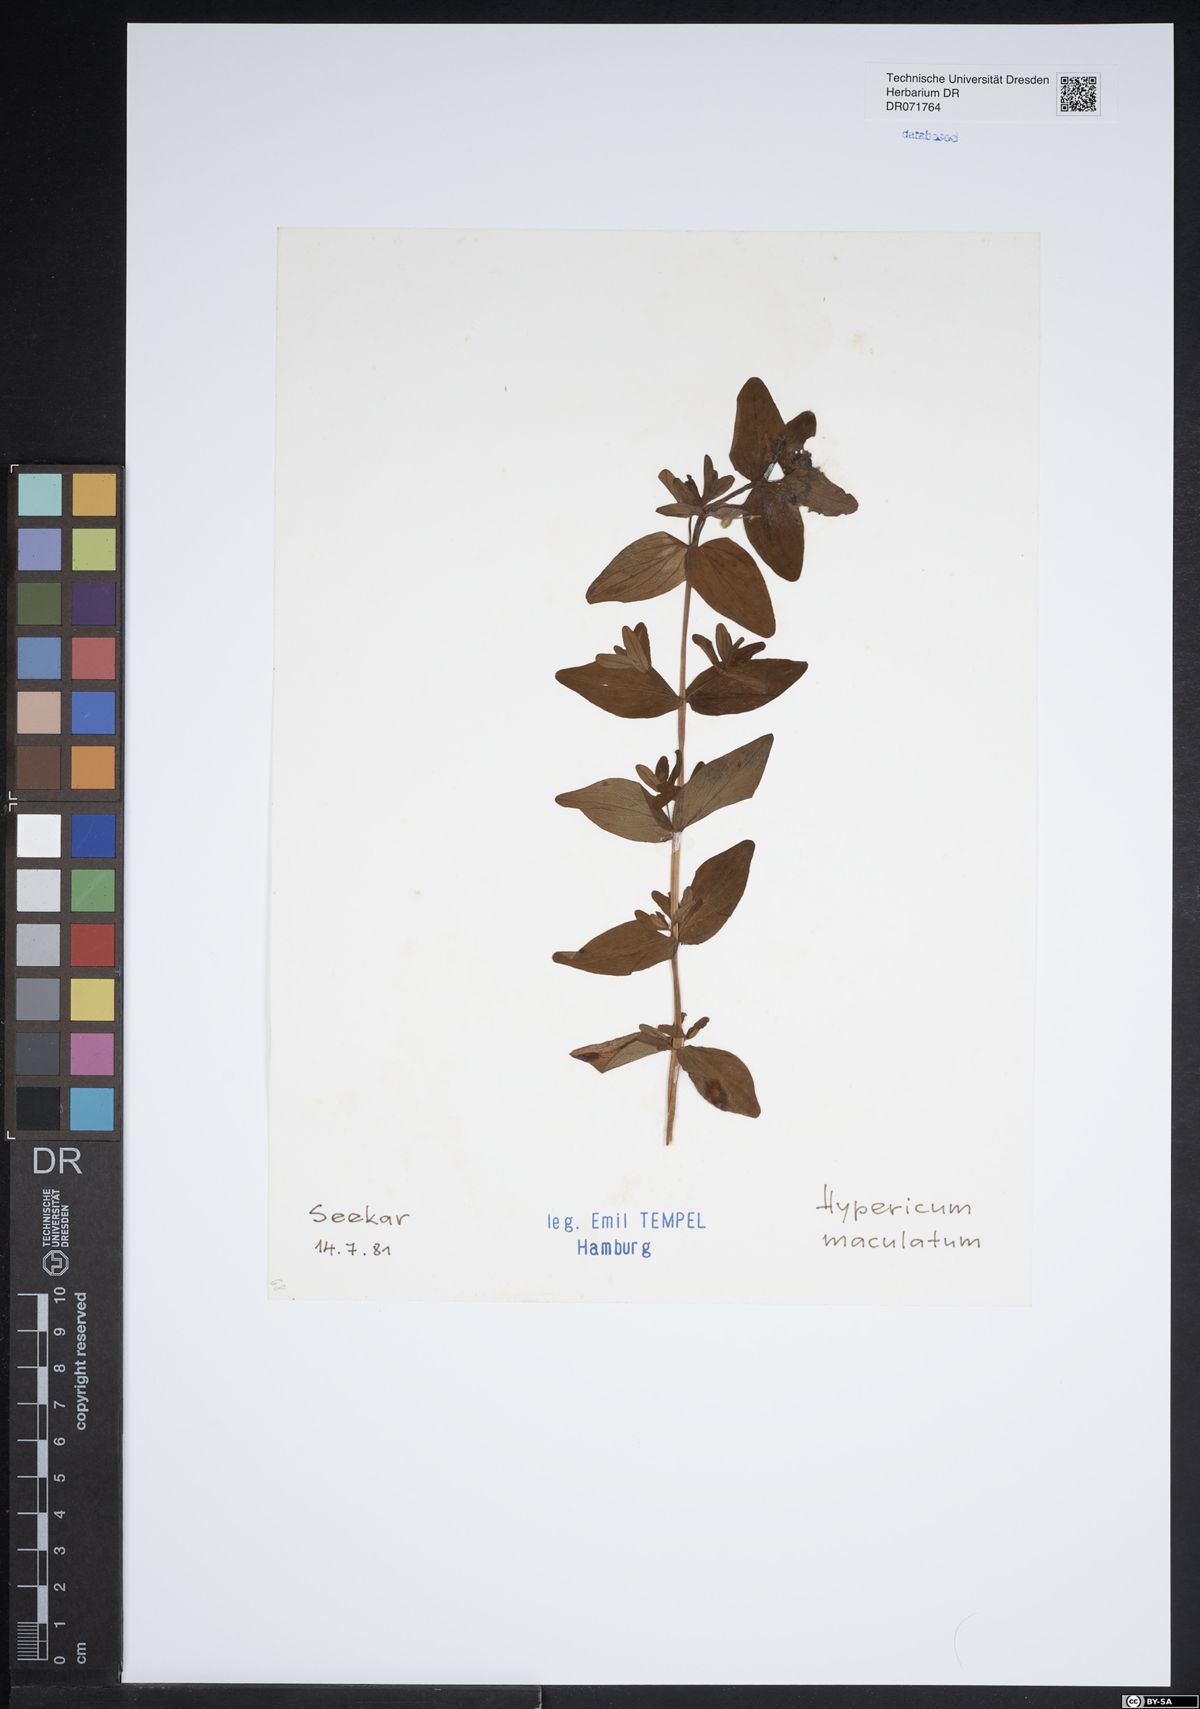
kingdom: Plantae
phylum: Tracheophyta
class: Magnoliopsida
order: Malpighiales
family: Hypericaceae
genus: Hypericum
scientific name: Hypericum maculatum
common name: Imperforate st. john's-wort
